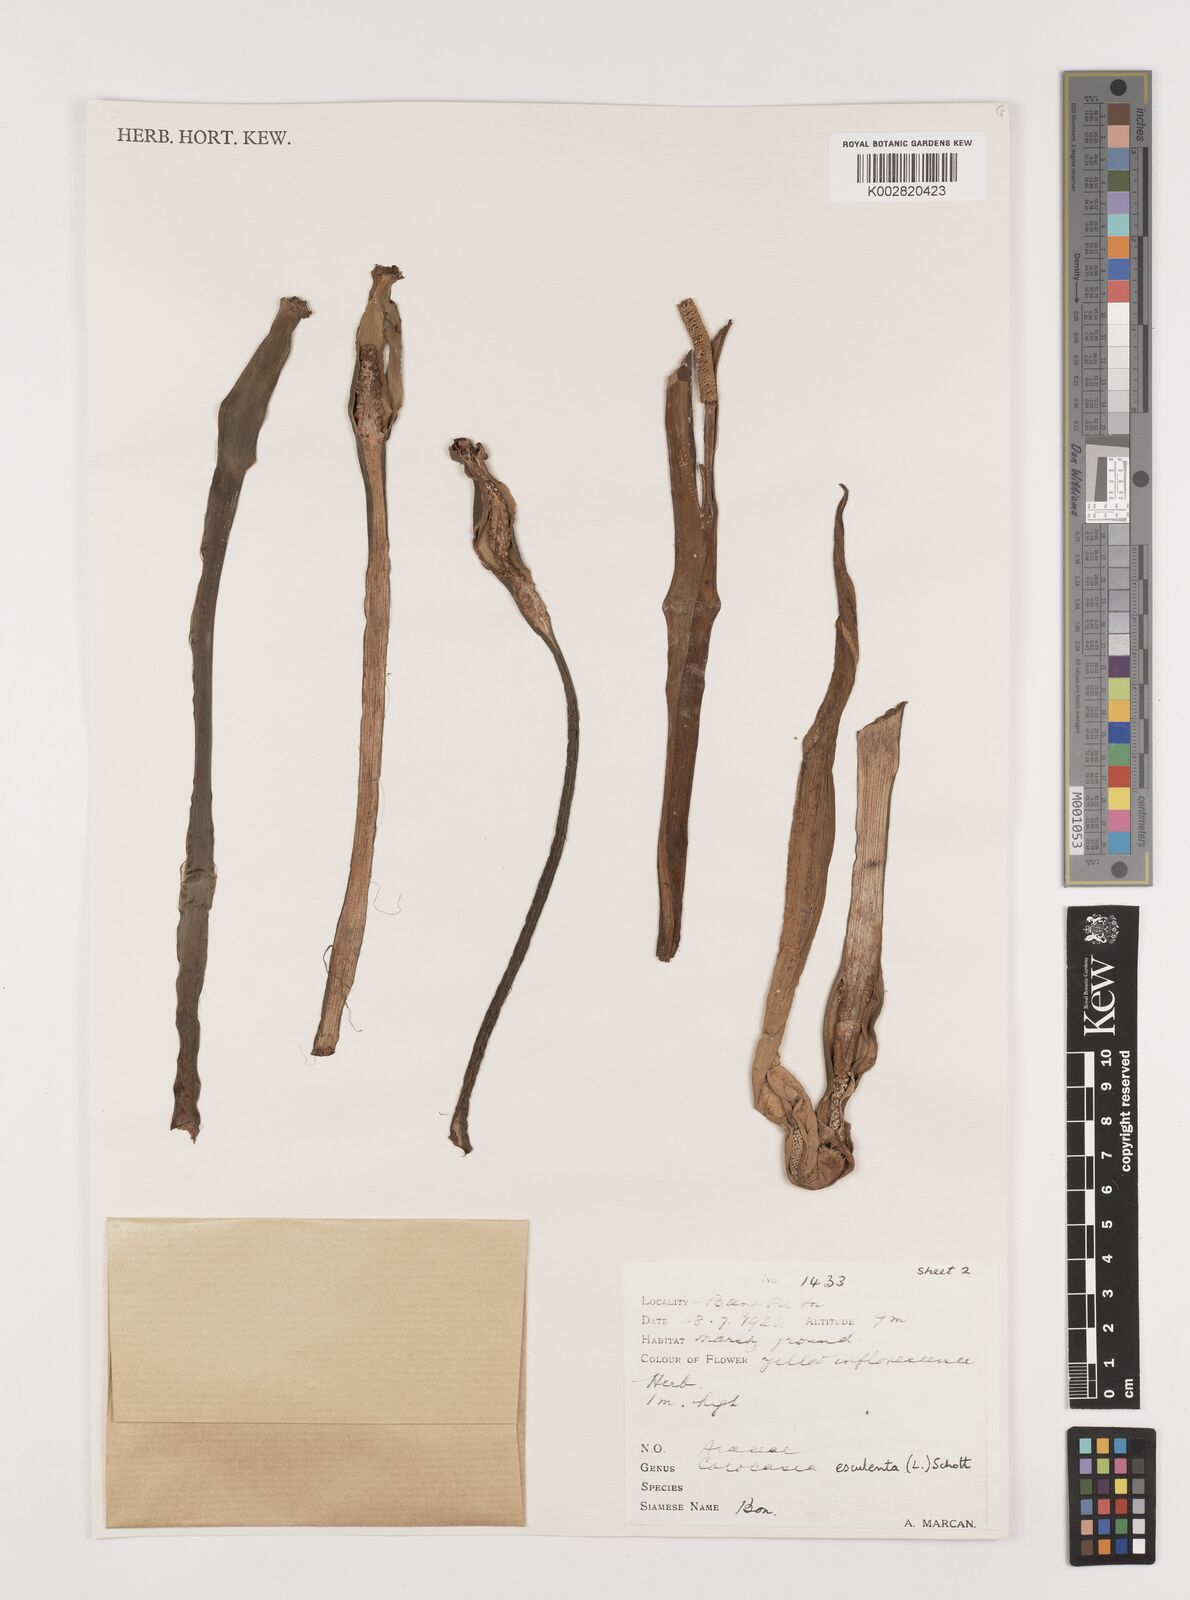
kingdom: Plantae
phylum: Tracheophyta
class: Liliopsida
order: Alismatales
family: Araceae
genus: Colocasia
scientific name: Colocasia esculenta
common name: Taro
